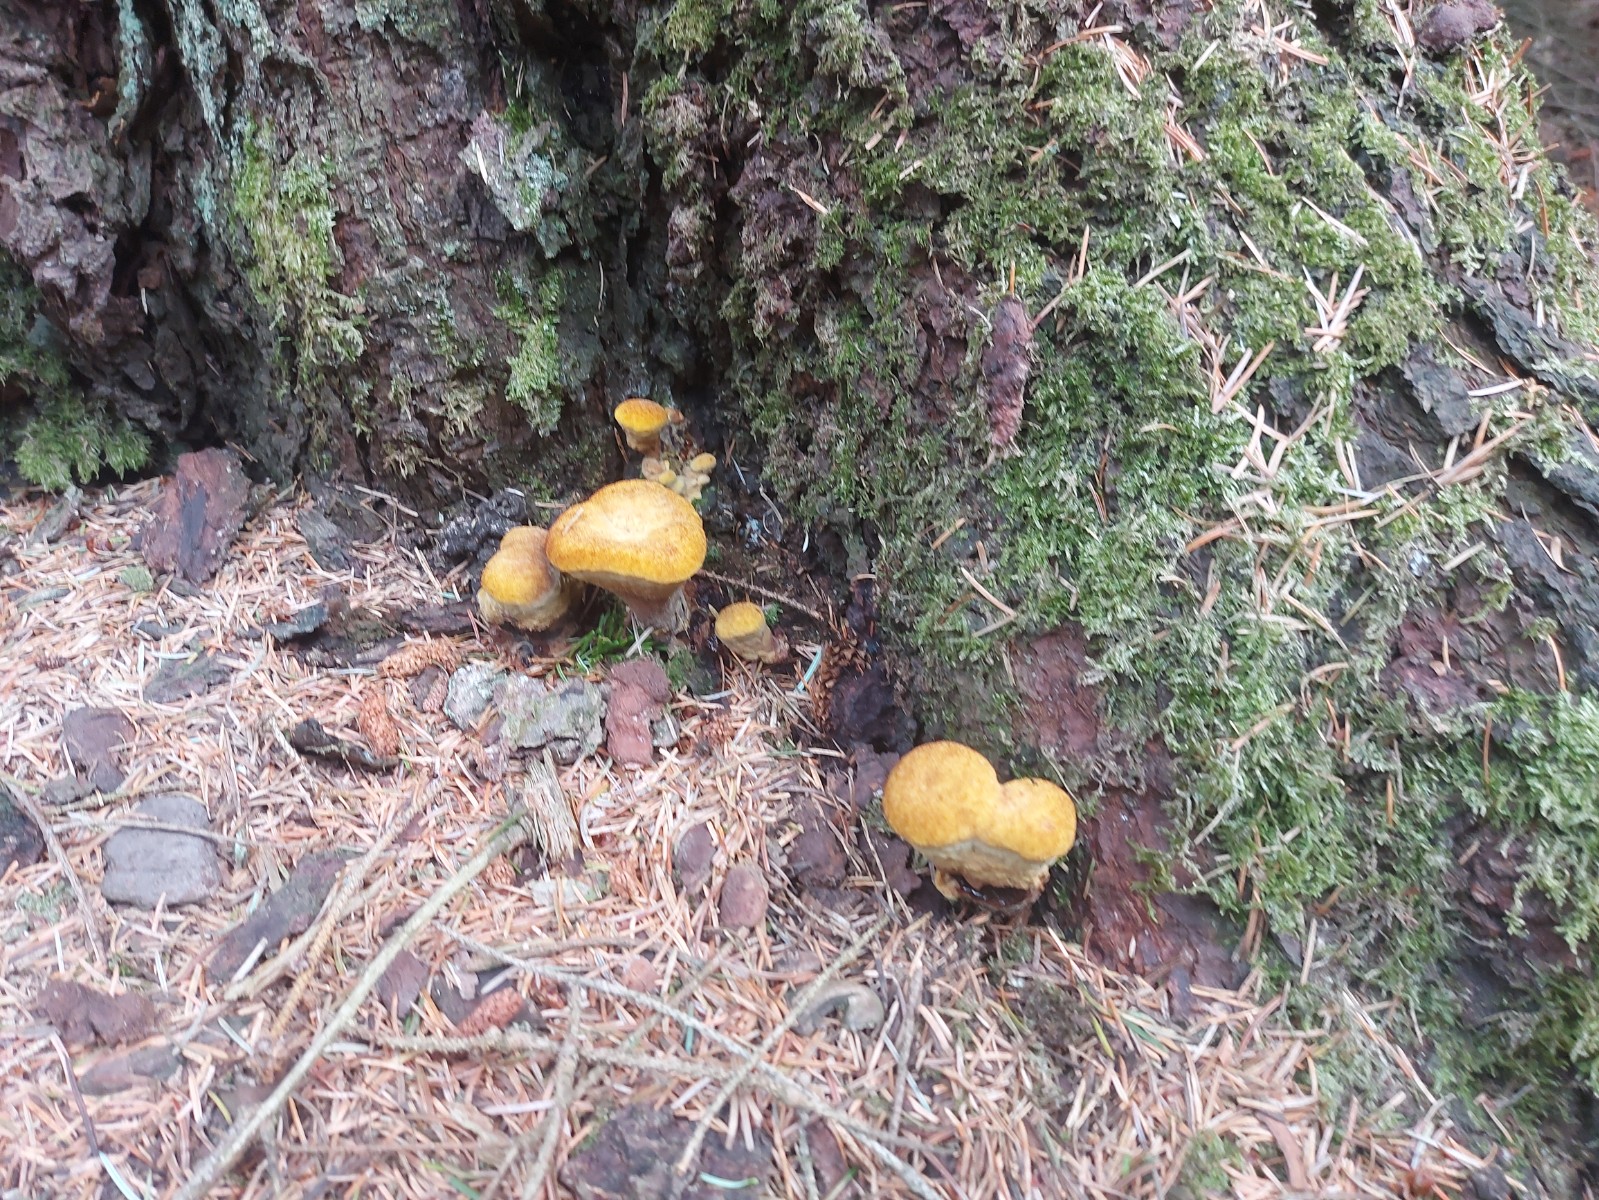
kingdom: Fungi
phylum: Basidiomycota
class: Agaricomycetes
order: Polyporales
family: Laetiporaceae
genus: Phaeolus
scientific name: Phaeolus schweinitzii
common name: brunporesvamp
